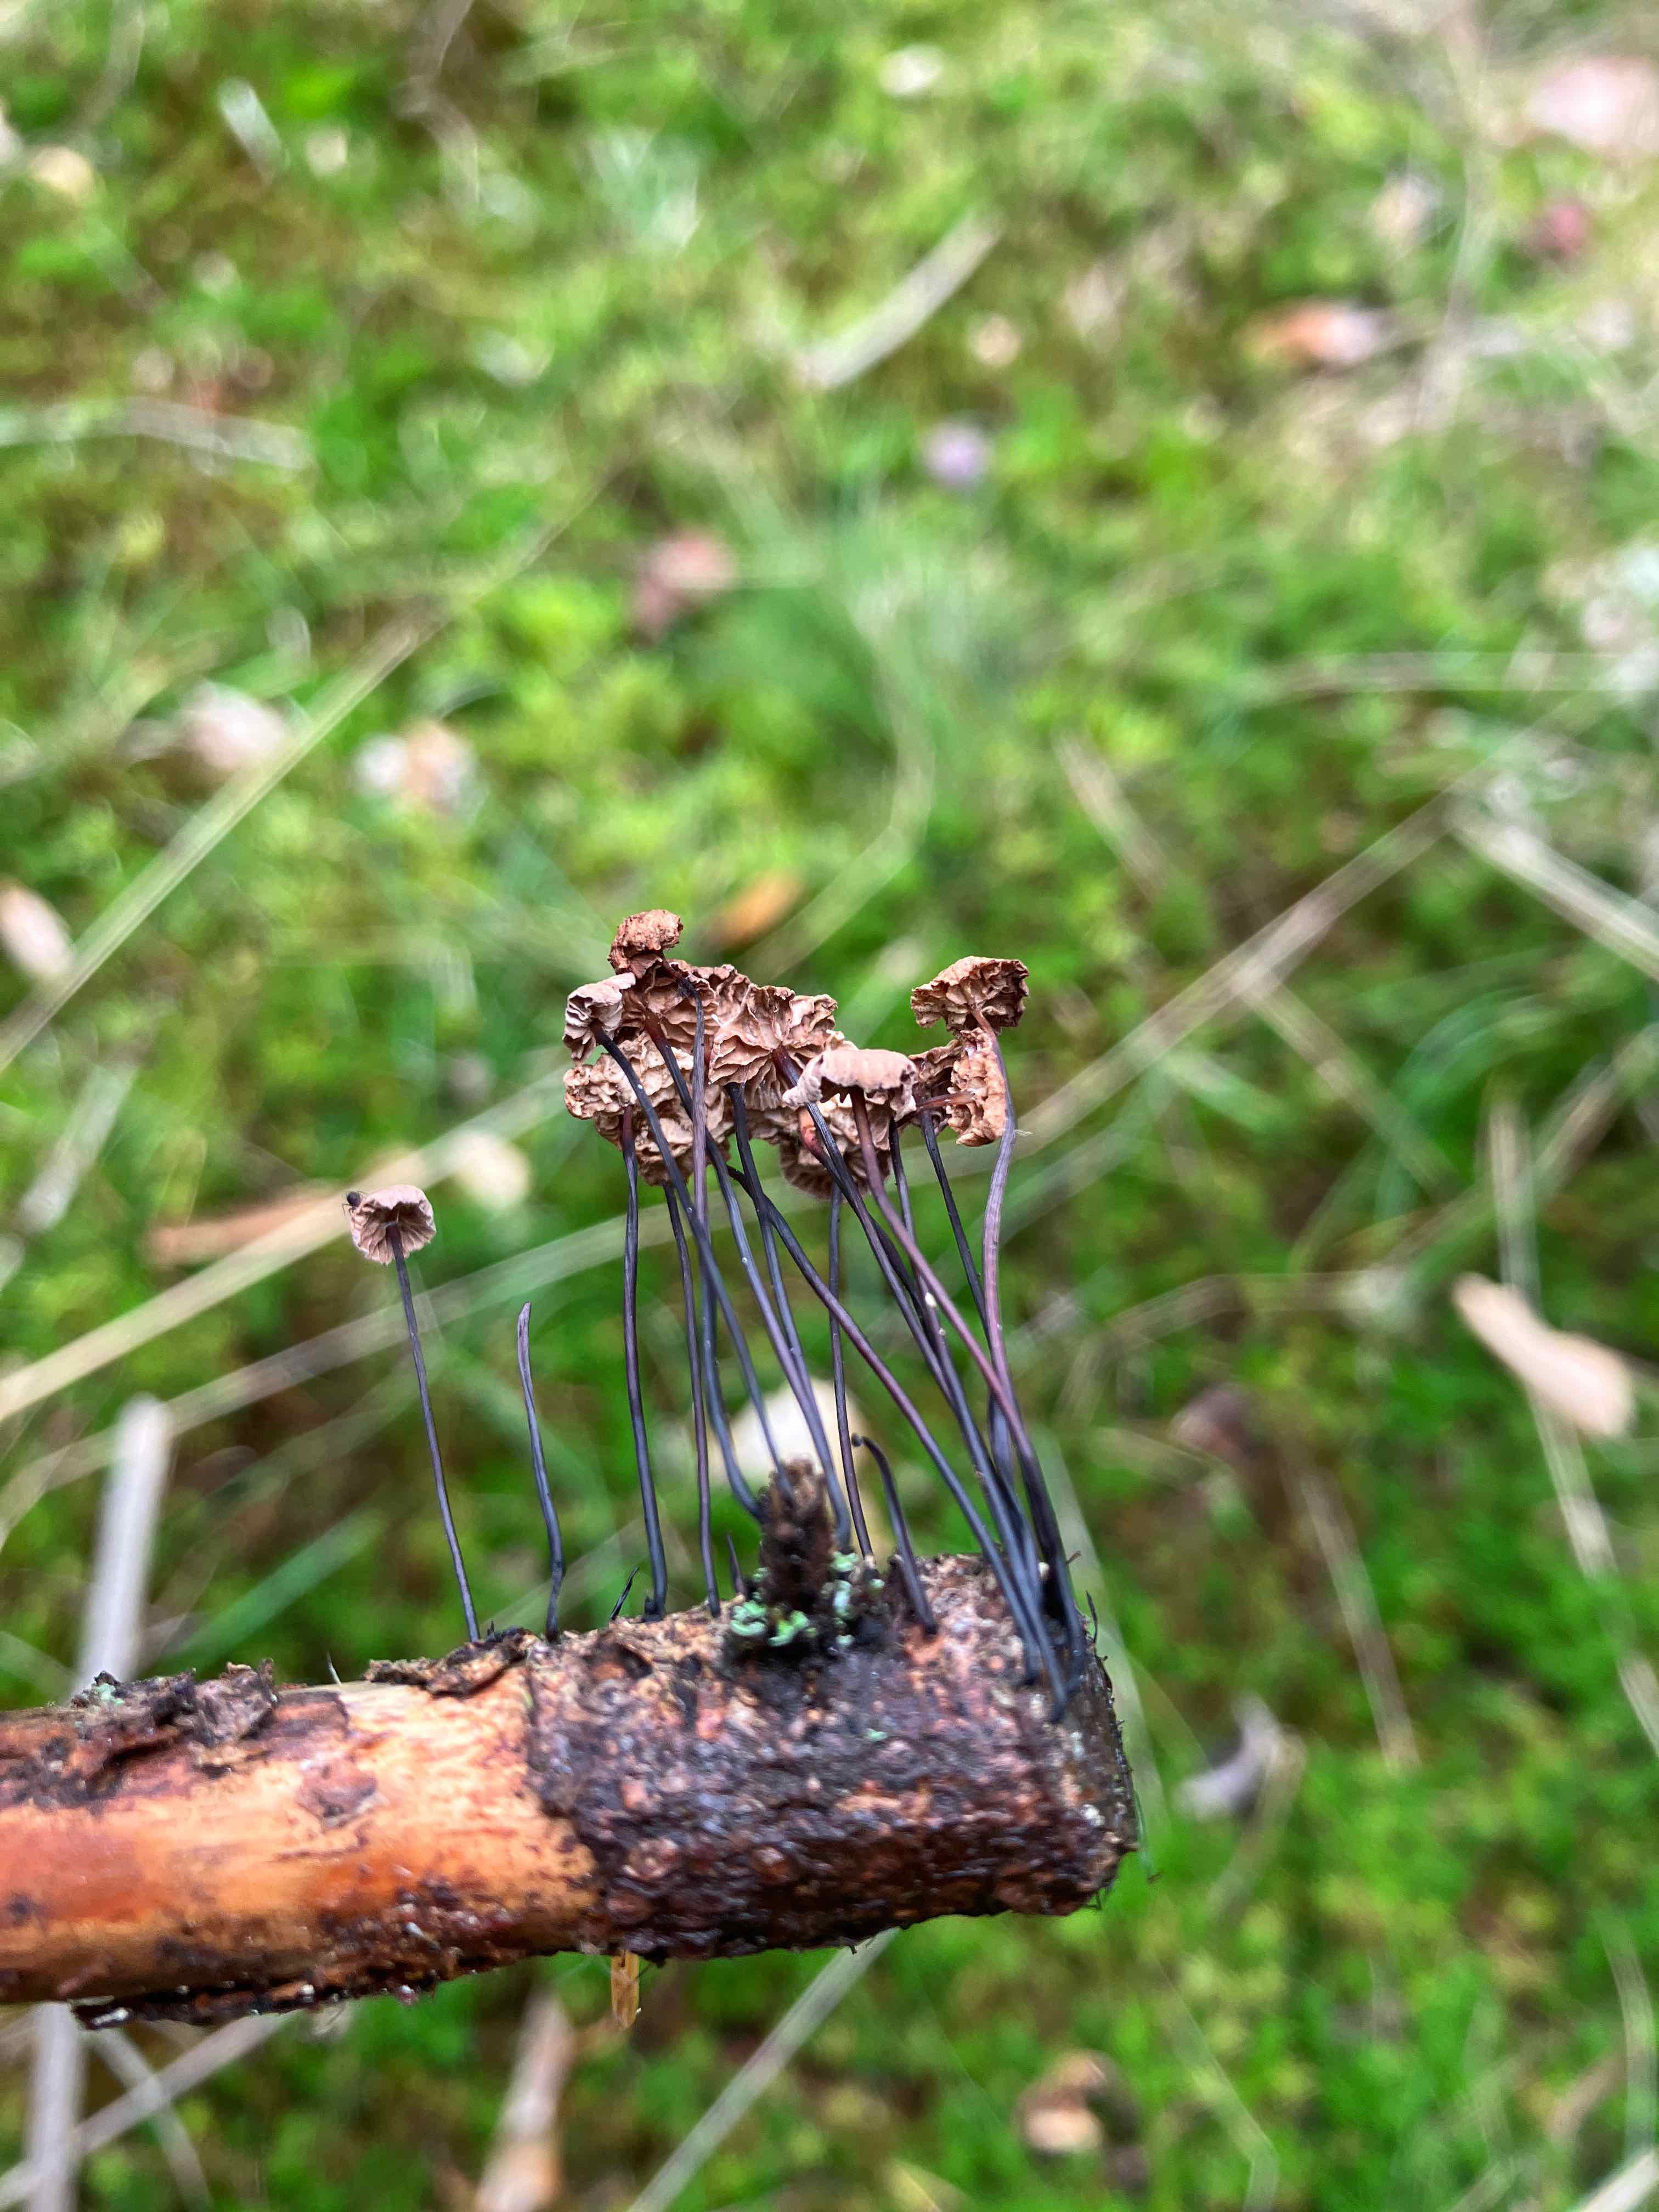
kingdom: Fungi
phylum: Basidiomycota
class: Agaricomycetes
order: Agaricales
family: Omphalotaceae
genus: Gymnopus
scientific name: Gymnopus androsaceus
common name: trådstokket fladhat
